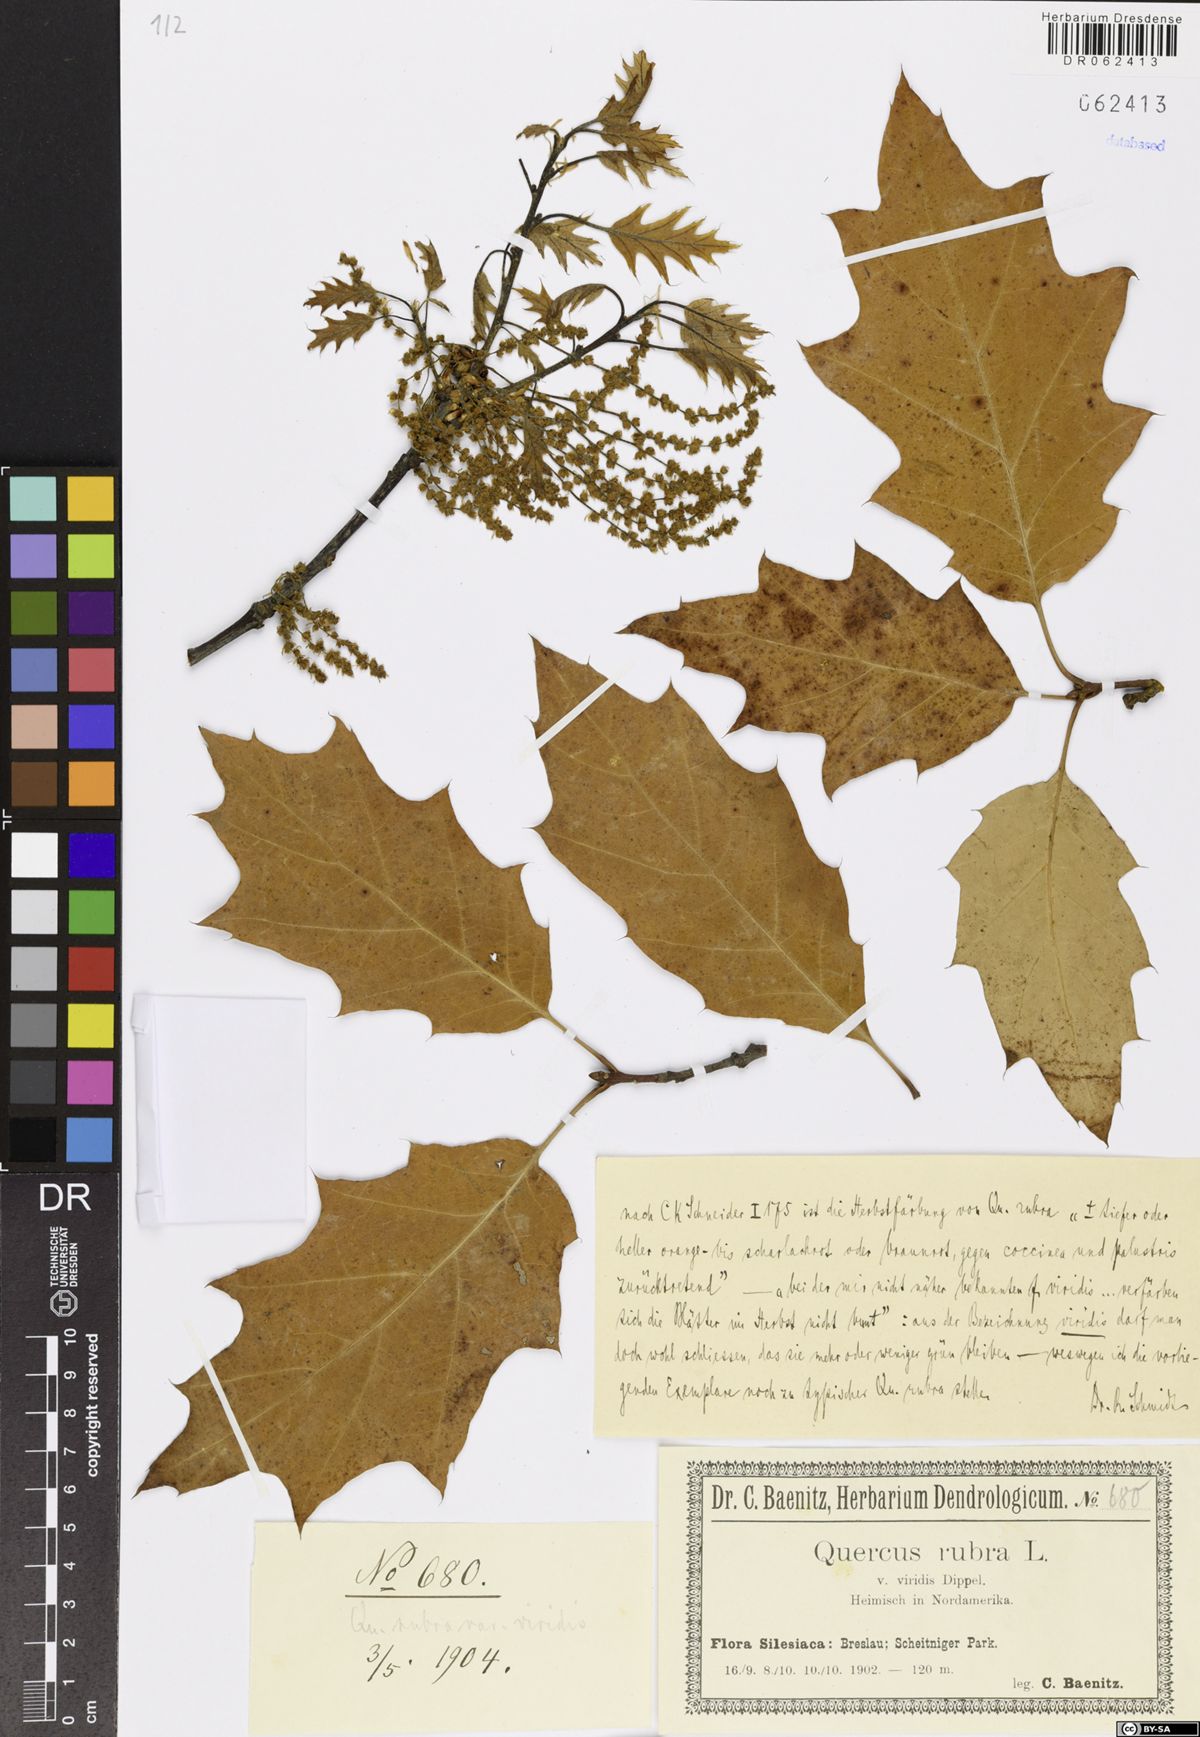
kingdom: Plantae
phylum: Tracheophyta
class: Magnoliopsida
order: Fagales
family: Fagaceae
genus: Quercus
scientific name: Quercus rubra
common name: Red oak
